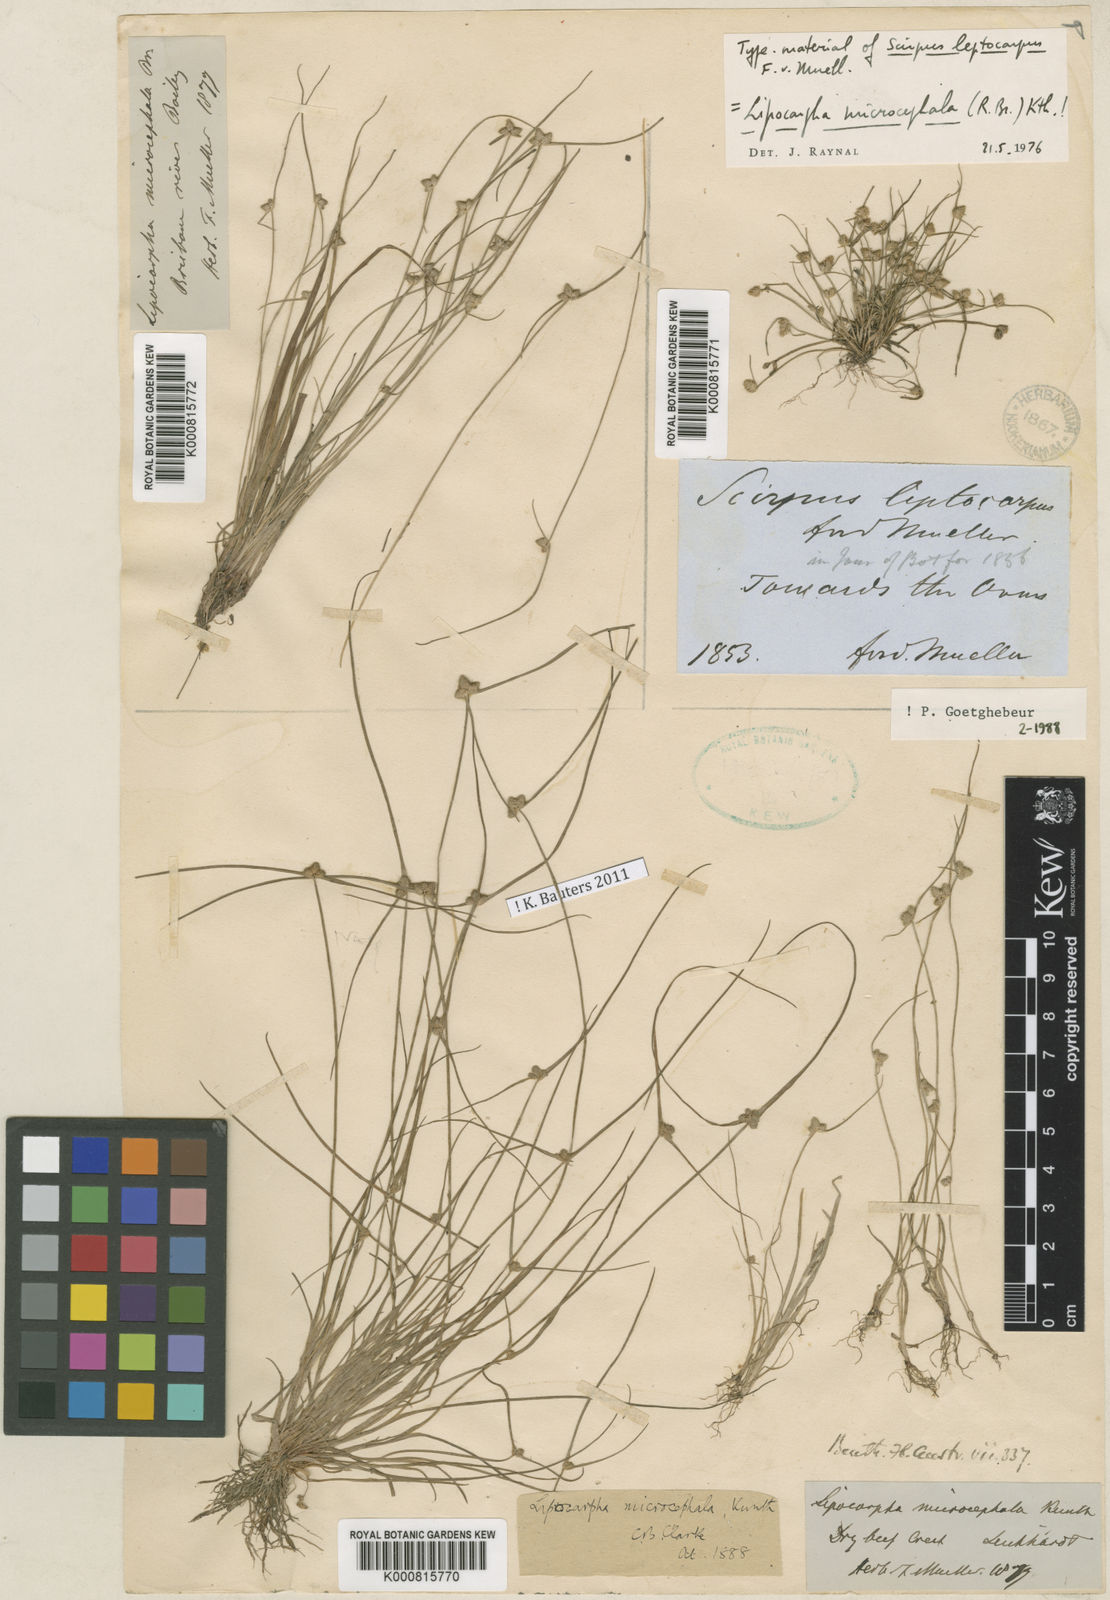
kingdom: Plantae
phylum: Tracheophyta
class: Liliopsida
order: Poales
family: Cyperaceae
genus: Cyperus
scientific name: Cyperus leptocarpus
